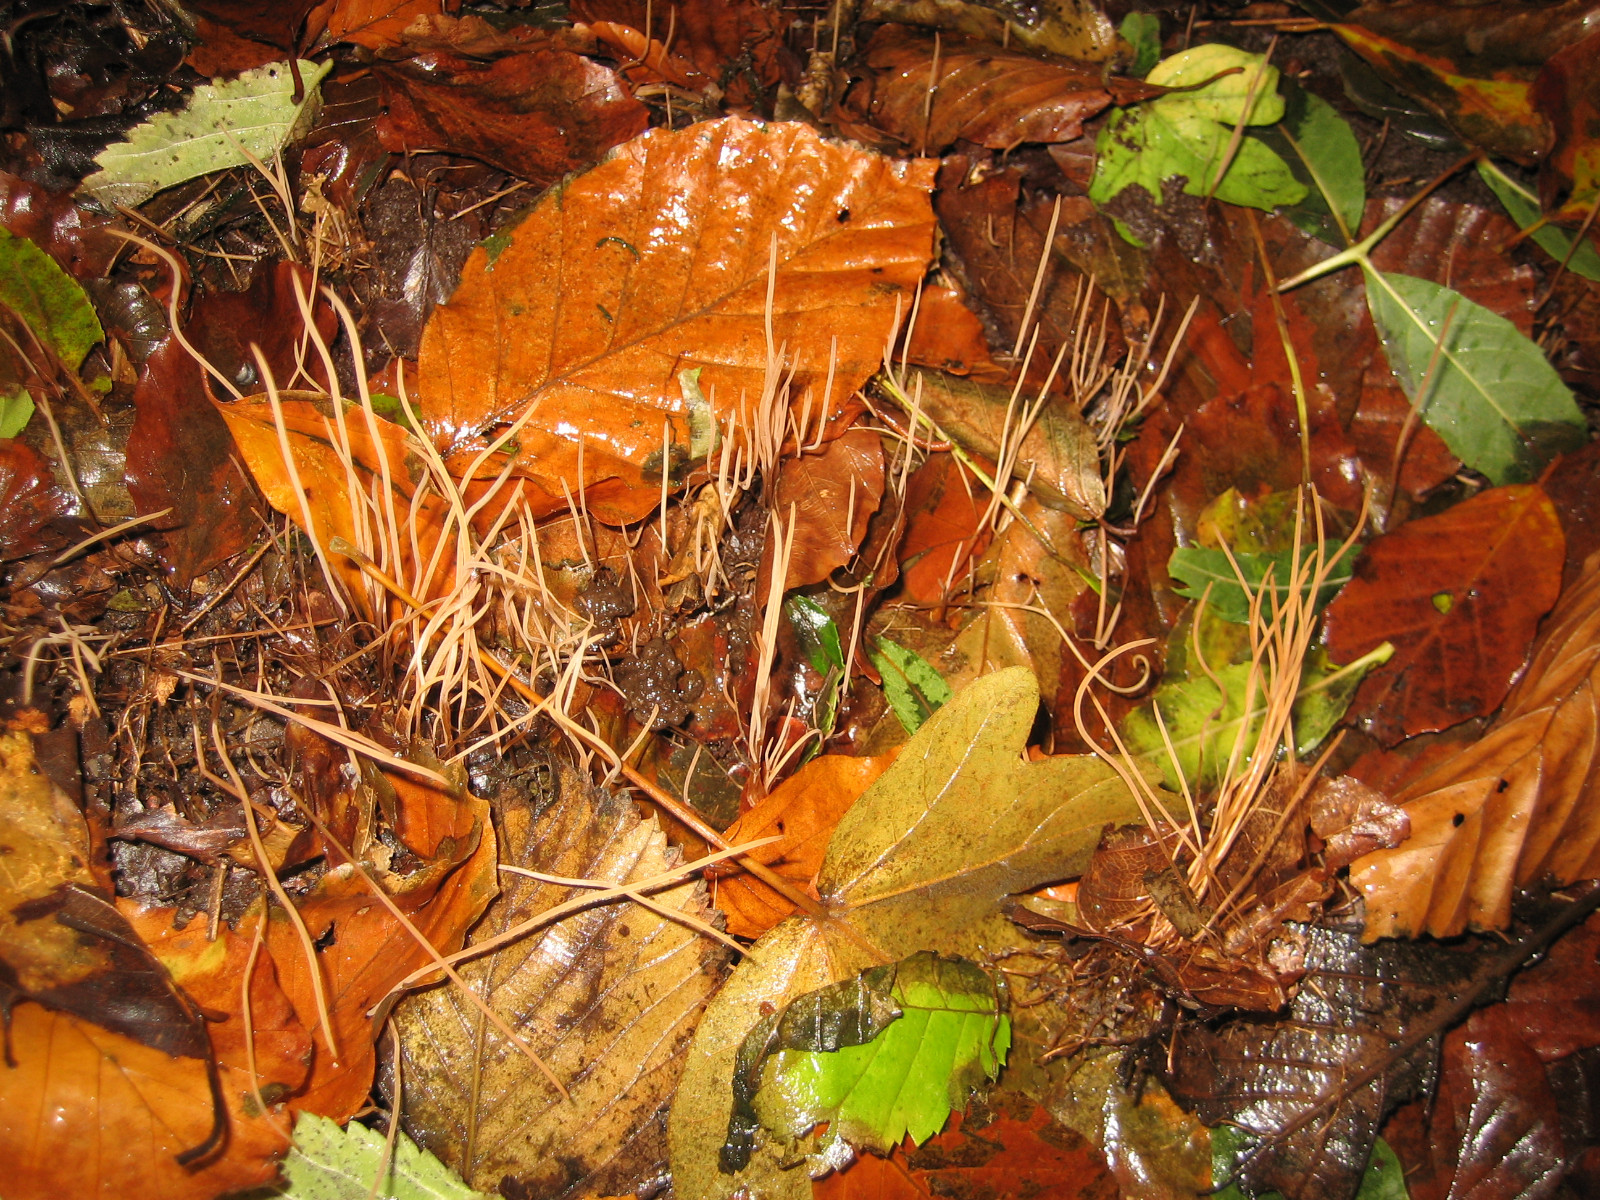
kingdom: Fungi
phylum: Basidiomycota
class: Agaricomycetes
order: Agaricales
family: Typhulaceae
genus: Typhula
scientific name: Typhula juncea
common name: trådagtig rørkølle
